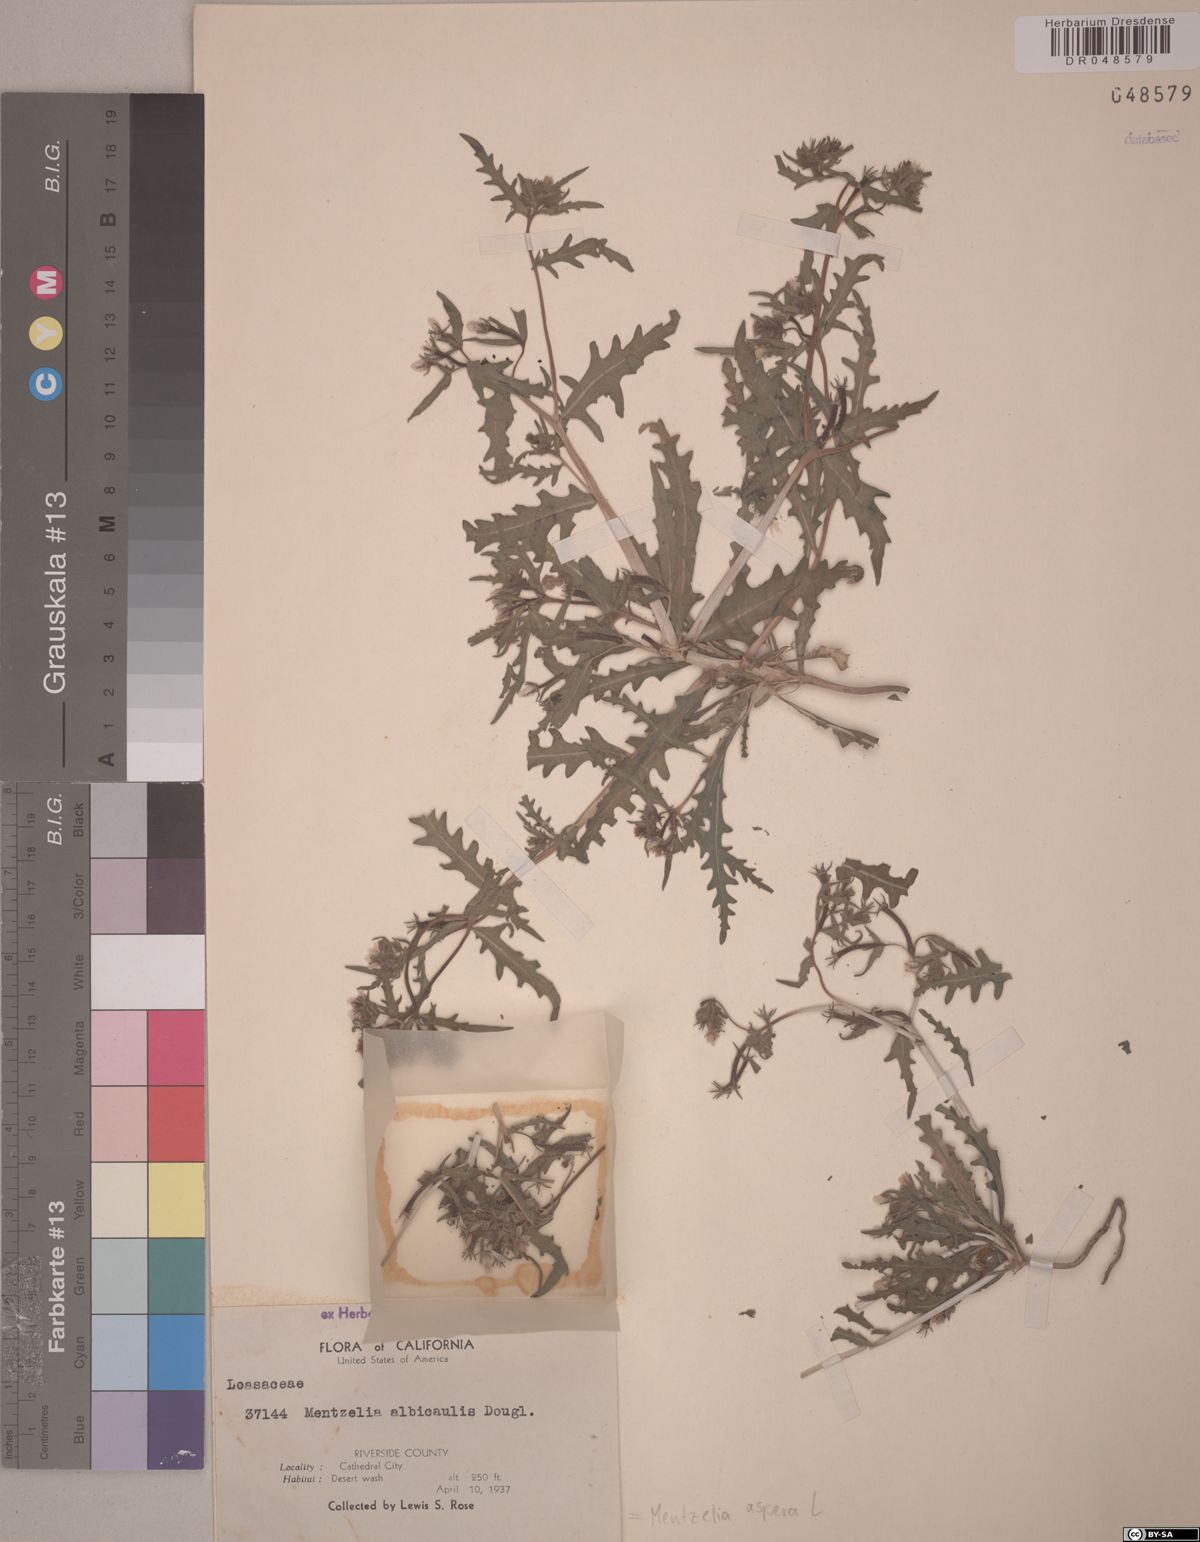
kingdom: Plantae
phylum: Tracheophyta
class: Magnoliopsida
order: Cornales
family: Loasaceae
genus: Mentzelia
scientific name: Mentzelia aspera
